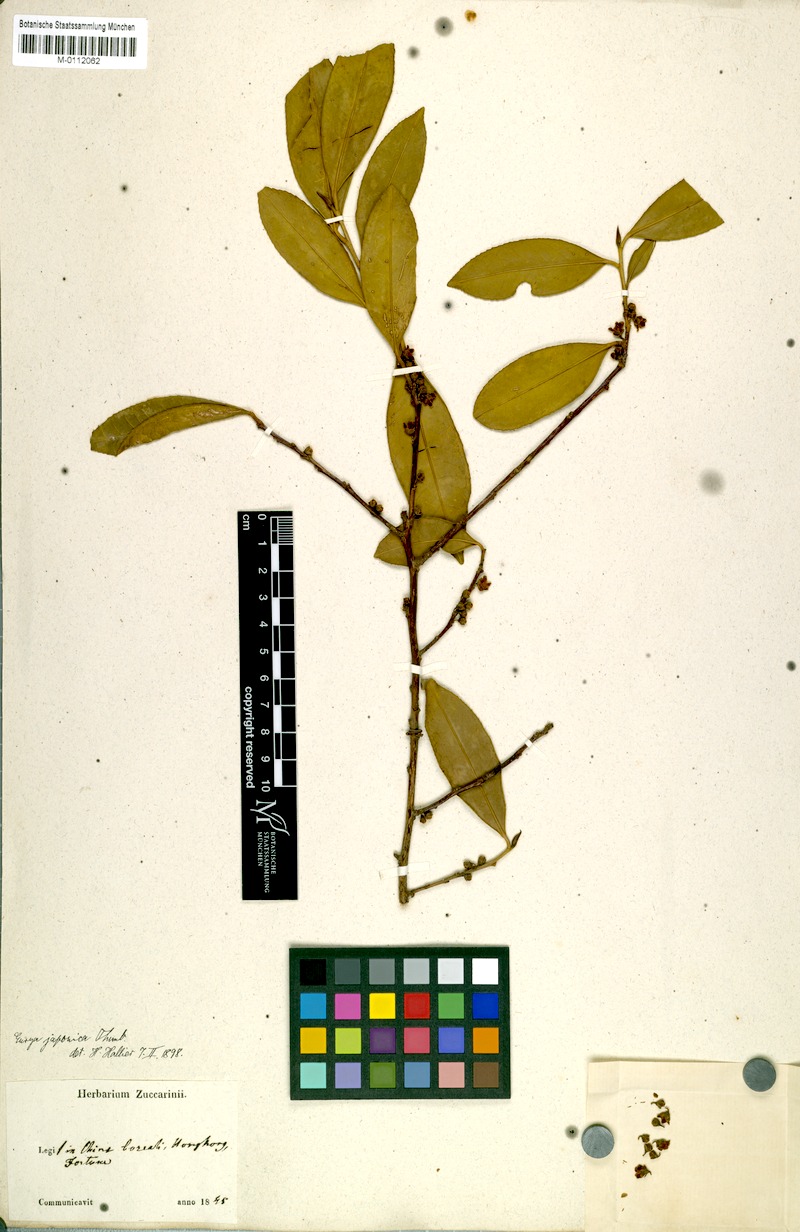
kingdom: Plantae
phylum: Tracheophyta
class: Magnoliopsida
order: Ericales
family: Pentaphylacaceae
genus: Eurya
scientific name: Eurya japonica
